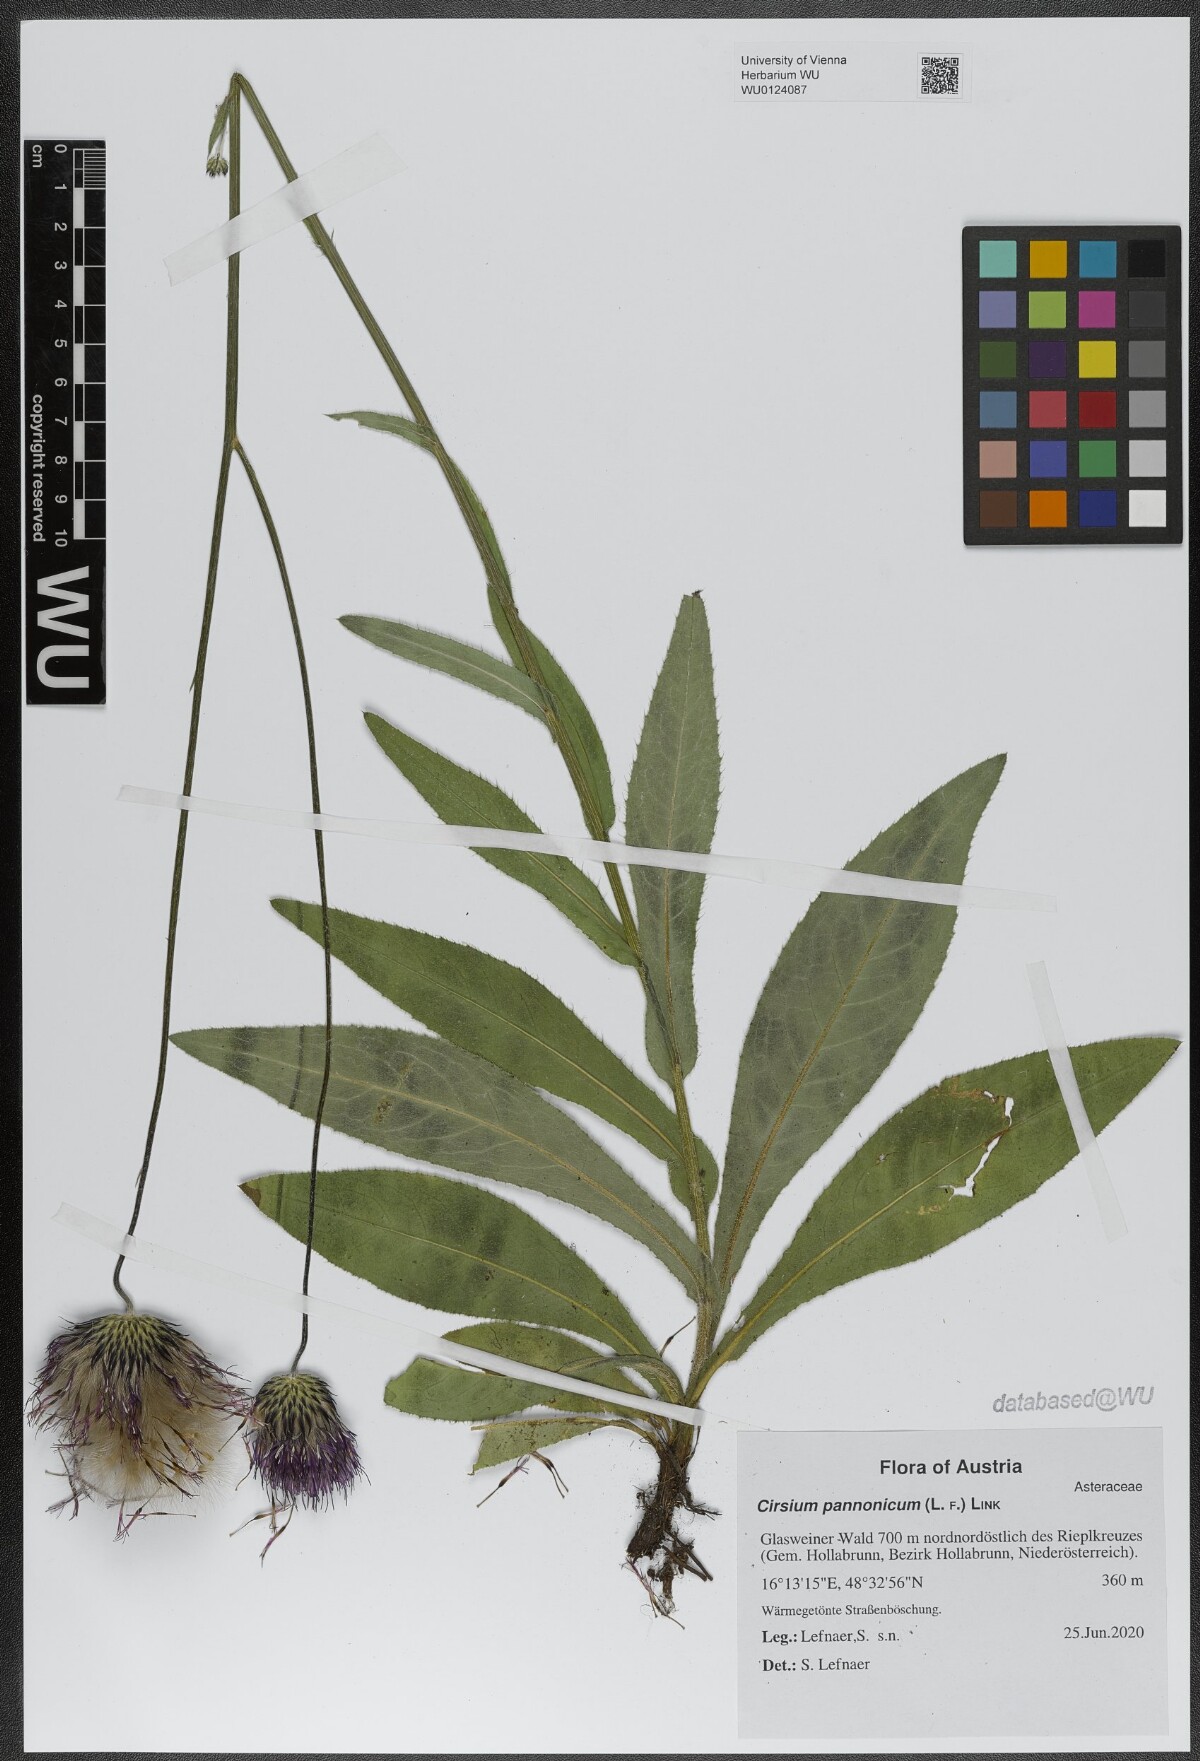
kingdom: Plantae
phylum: Tracheophyta
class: Magnoliopsida
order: Asterales
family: Asteraceae
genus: Cirsium
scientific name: Cirsium pannonicum
